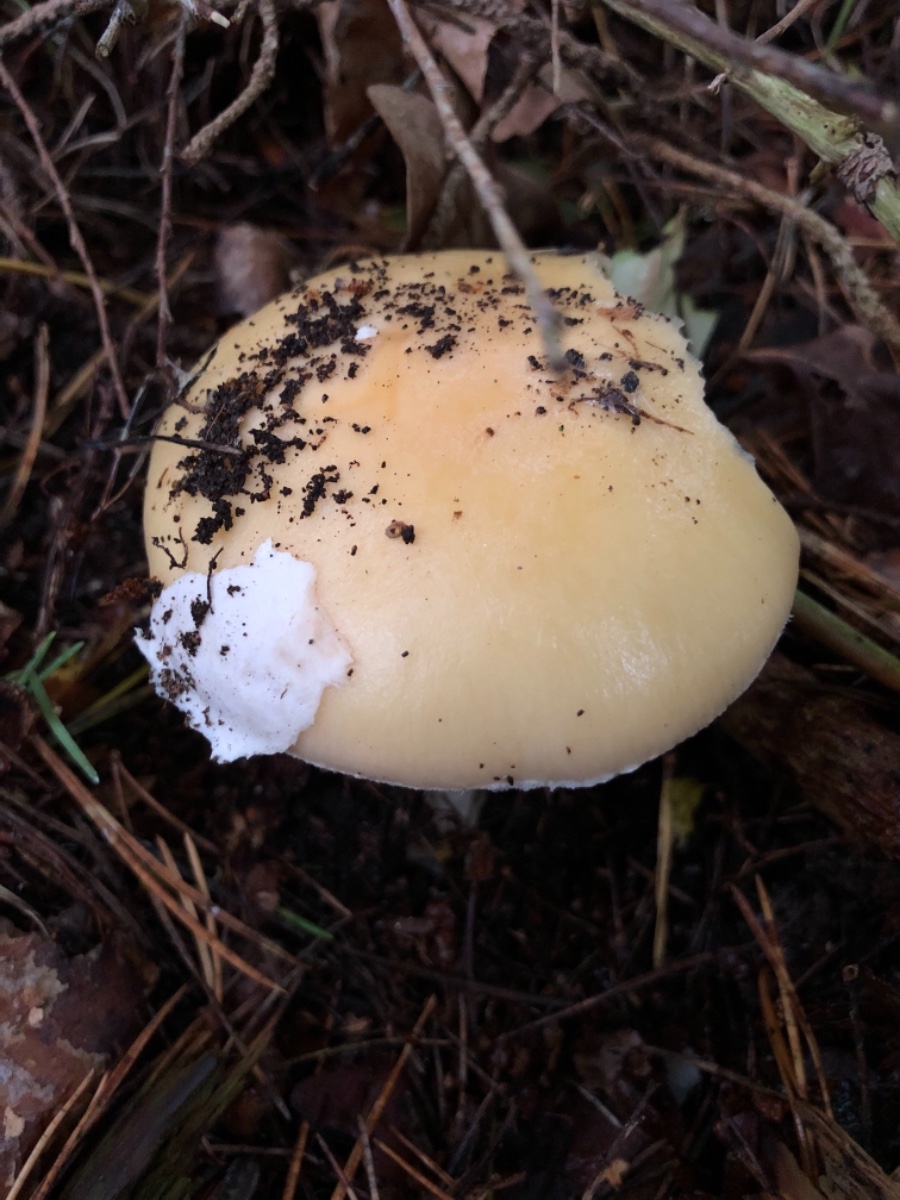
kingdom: Fungi
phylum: Basidiomycota
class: Agaricomycetes
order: Agaricales
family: Amanitaceae
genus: Amanita
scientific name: Amanita gemmata
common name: okkergul fluesvamp
